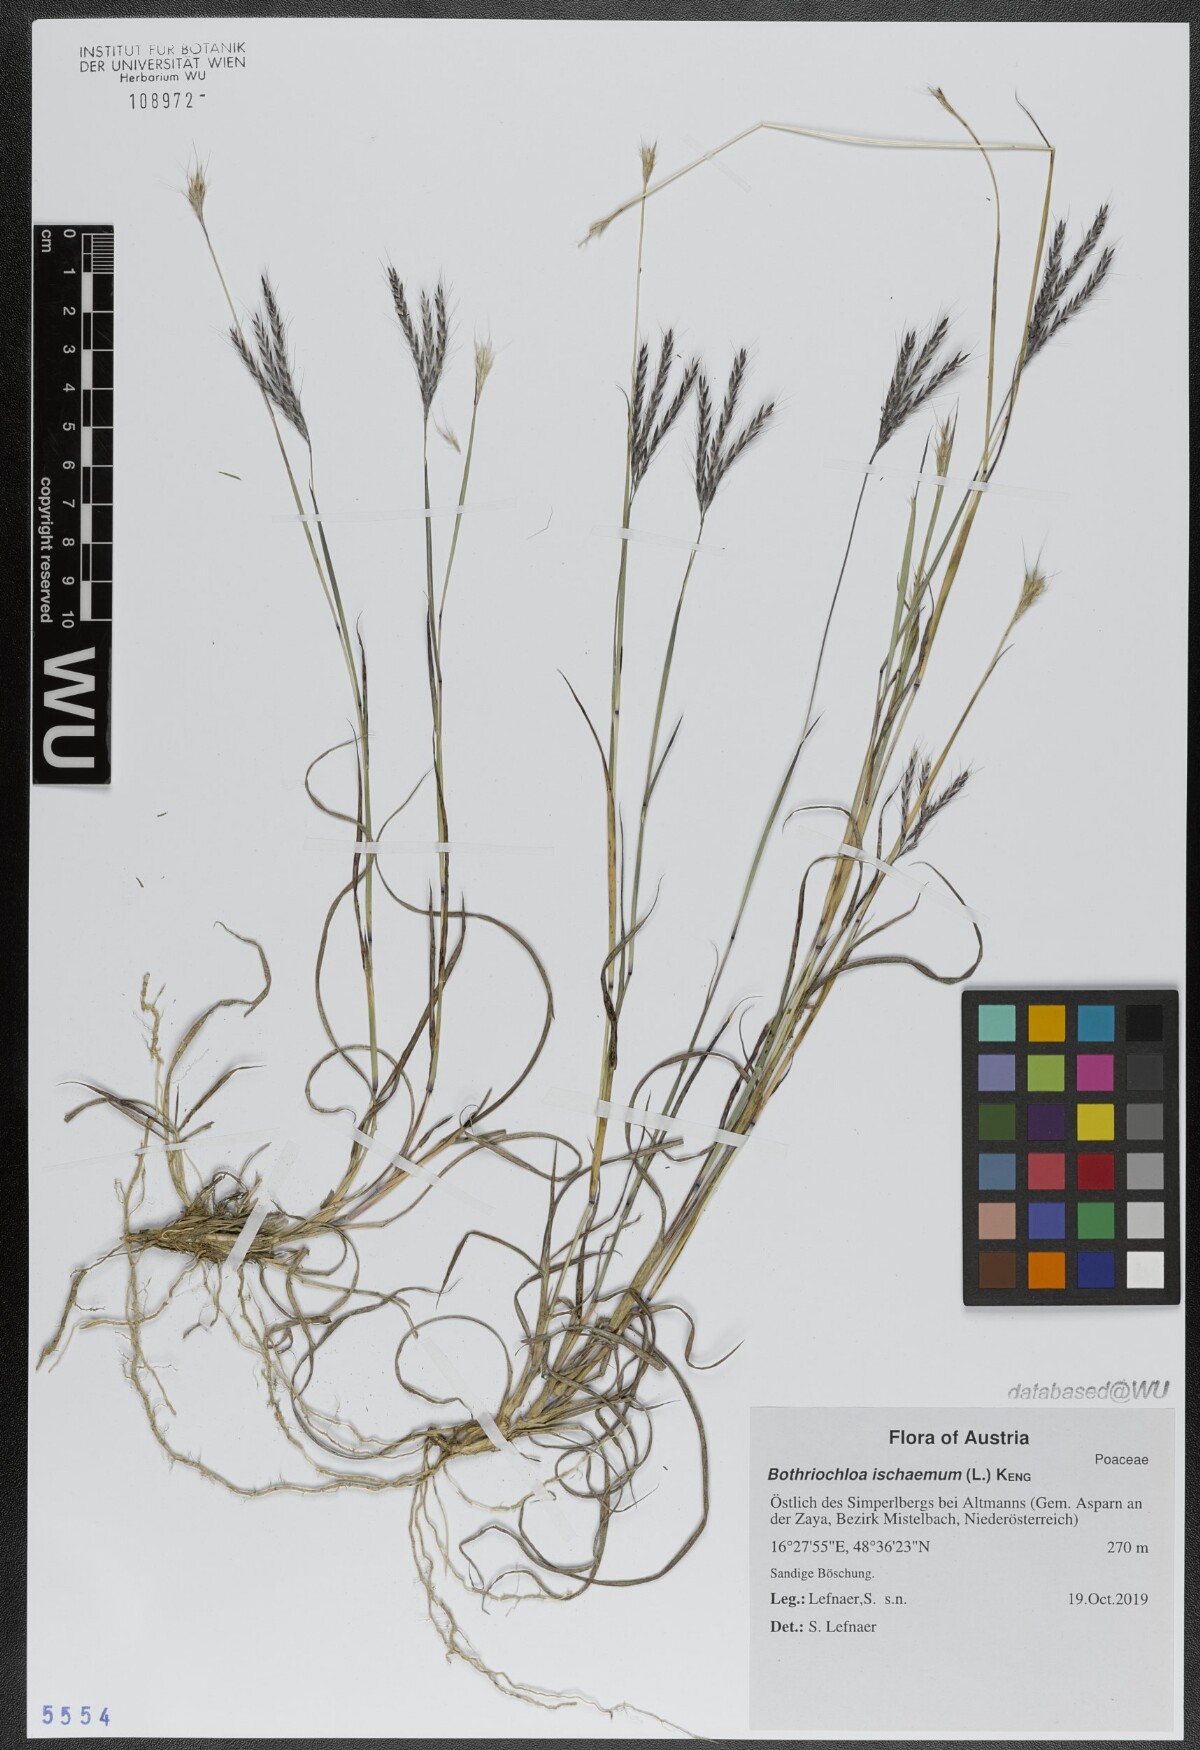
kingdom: Plantae
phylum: Tracheophyta
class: Liliopsida
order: Poales
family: Poaceae
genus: Bothriochloa
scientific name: Bothriochloa ischaemum
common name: Yellow bluestem
